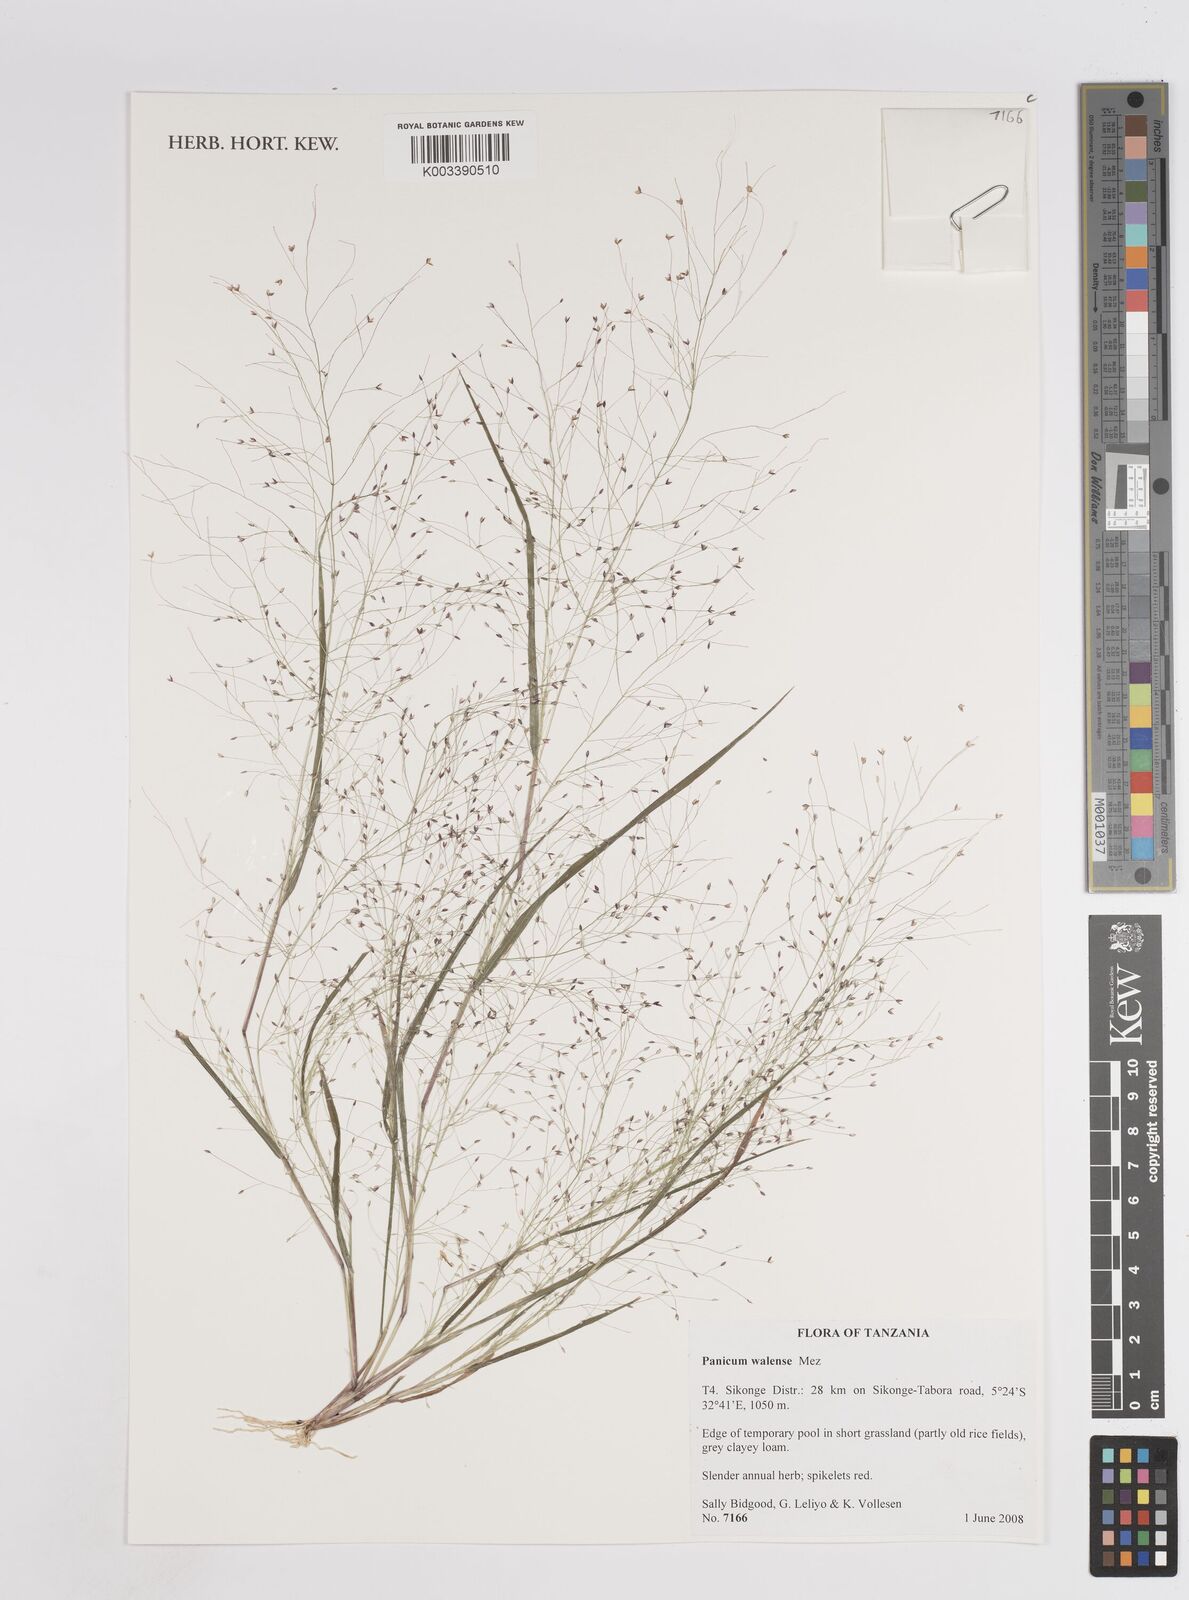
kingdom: Plantae
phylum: Tracheophyta
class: Liliopsida
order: Poales
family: Poaceae
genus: Panicum
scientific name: Panicum humile
